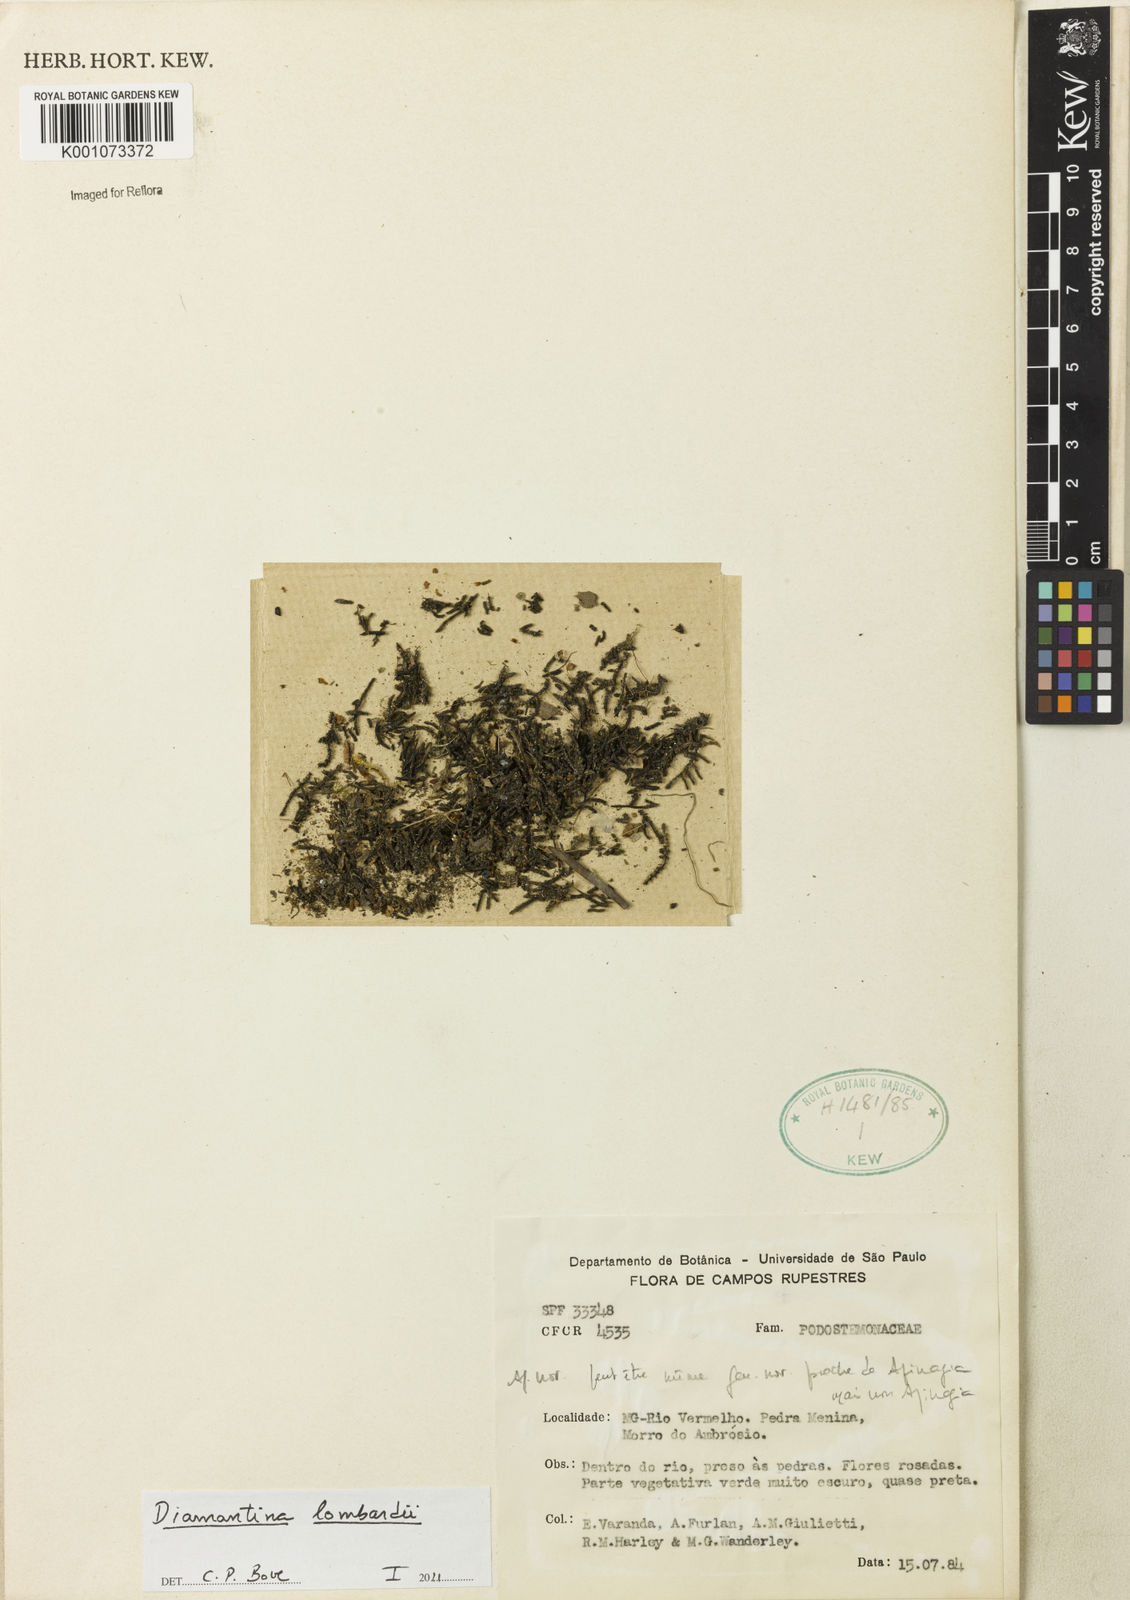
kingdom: Plantae
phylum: Tracheophyta
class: Magnoliopsida
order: Malpighiales
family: Podostemaceae
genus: Diamantina
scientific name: Diamantina lombardii
